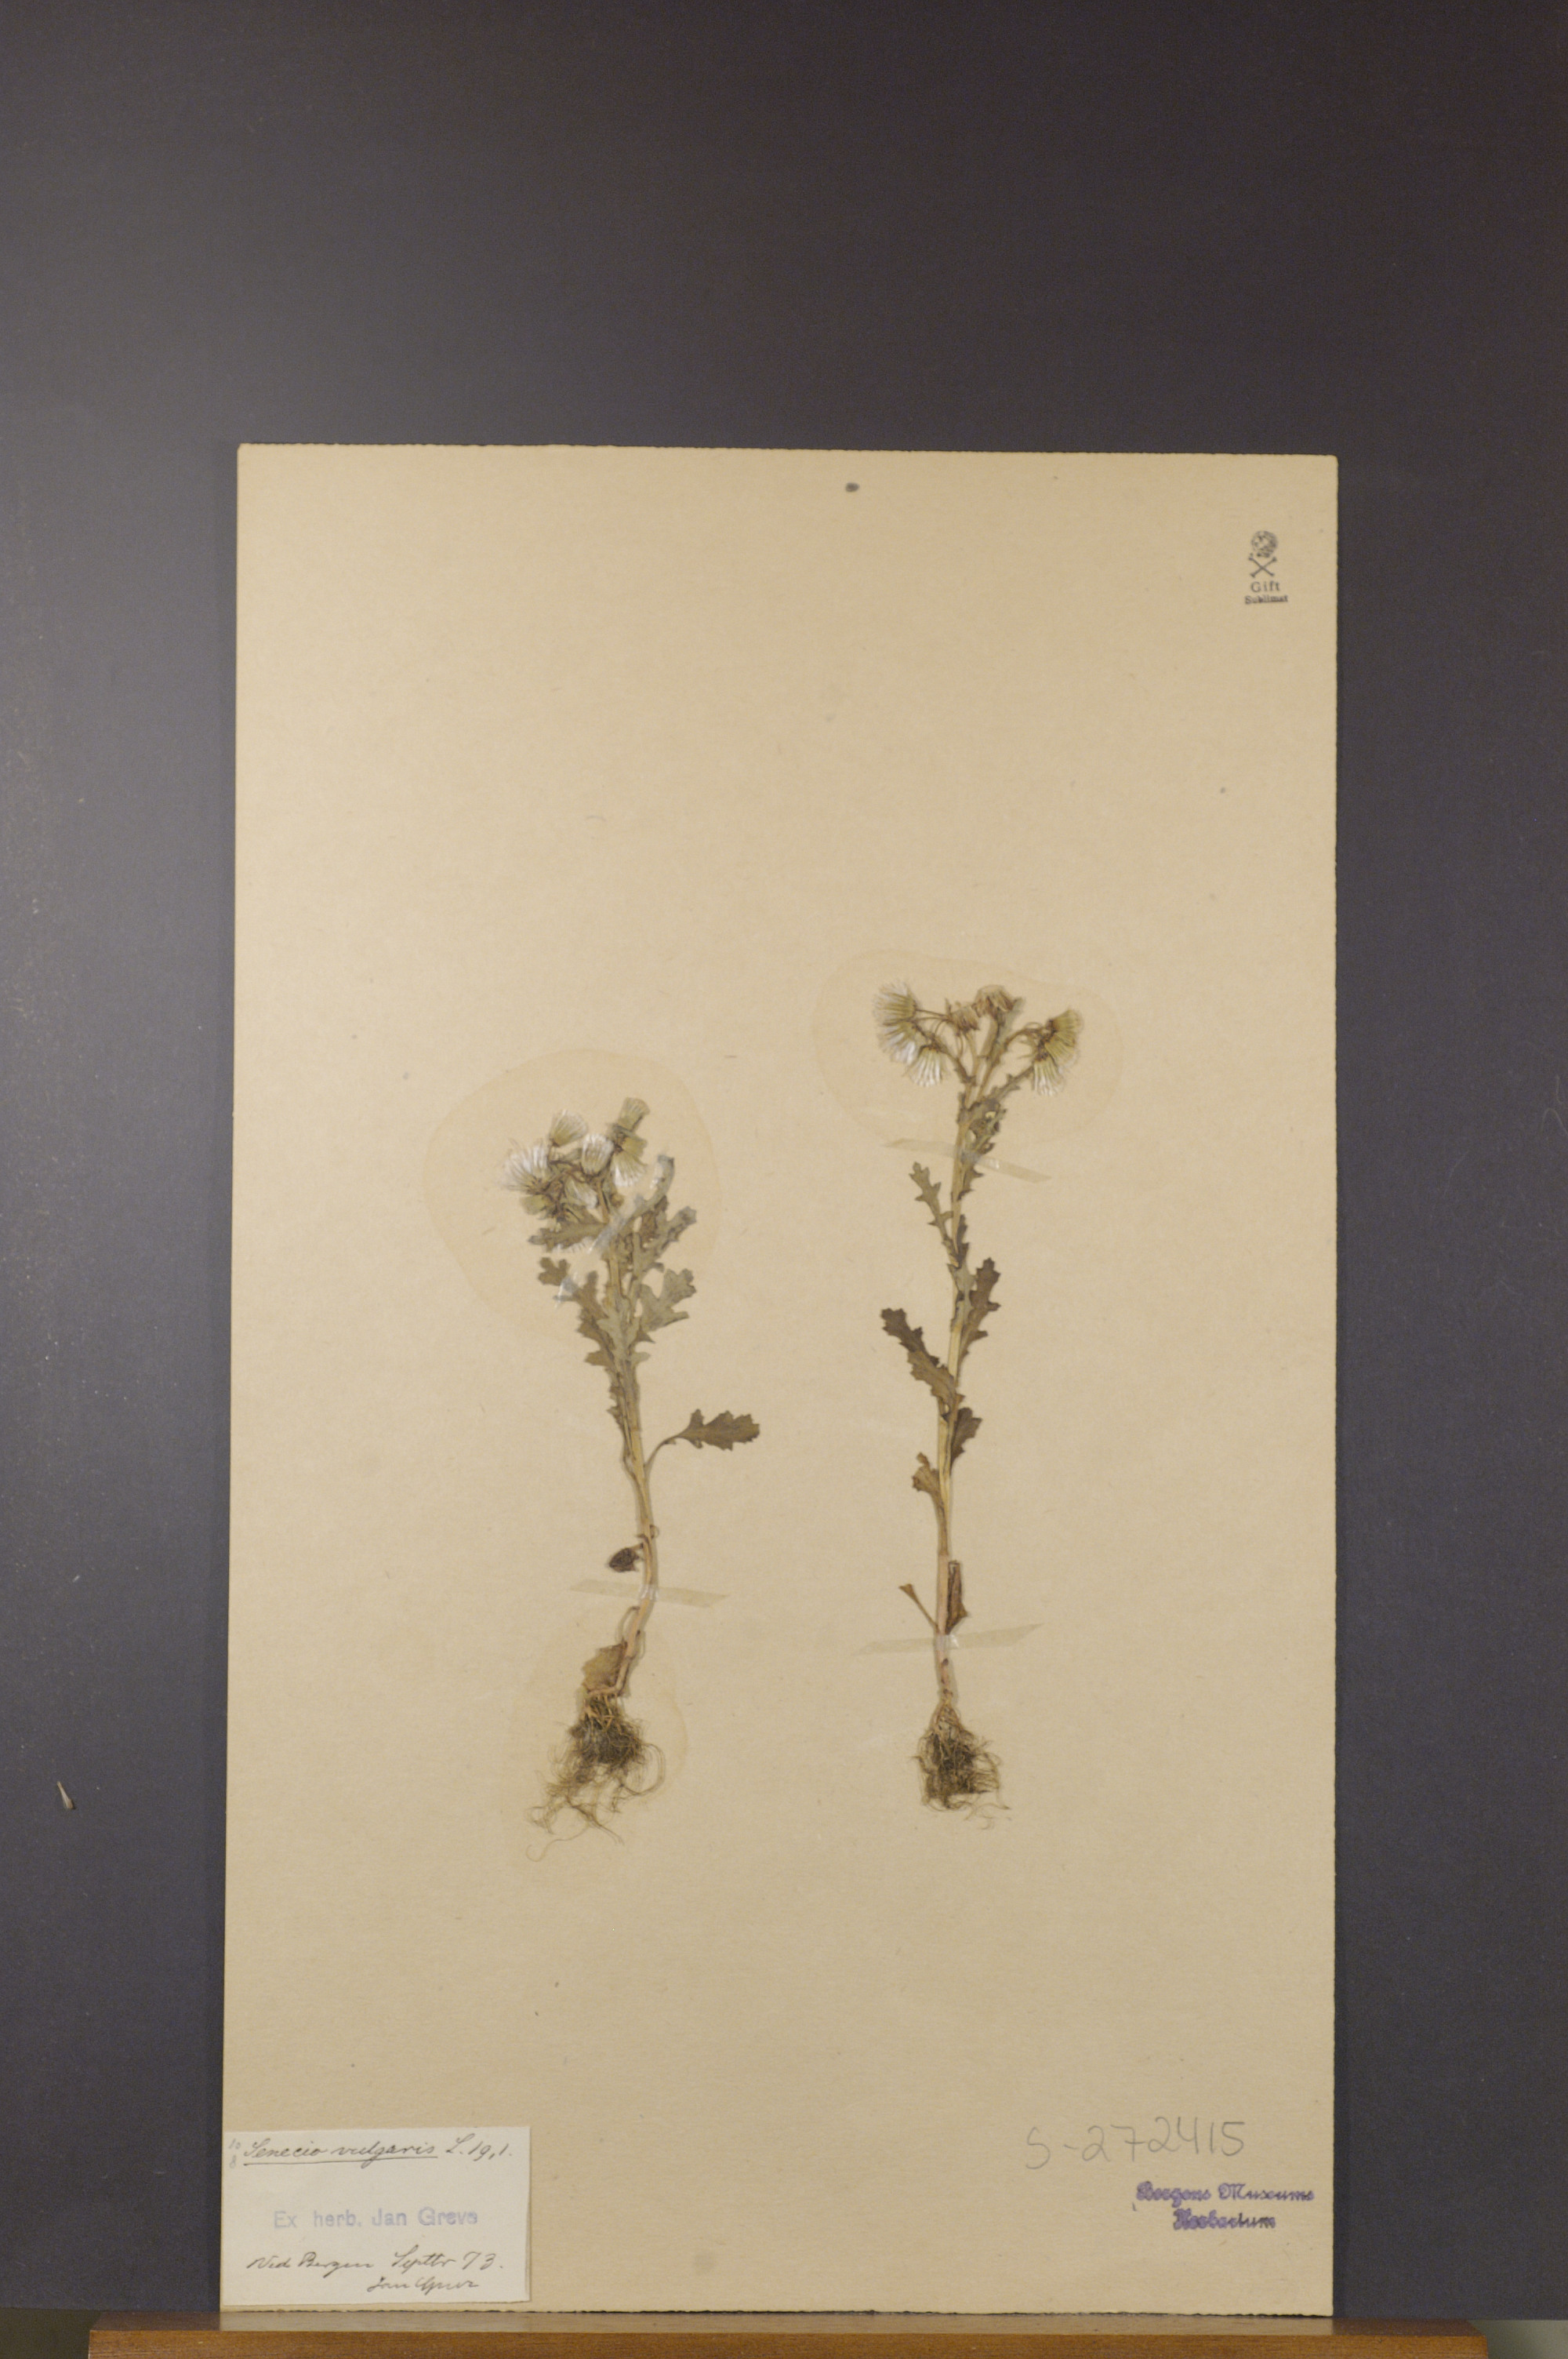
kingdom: Plantae
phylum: Tracheophyta
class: Magnoliopsida
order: Asterales
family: Asteraceae
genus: Senecio
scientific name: Senecio vulgaris
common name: Old-man-in-the-spring
